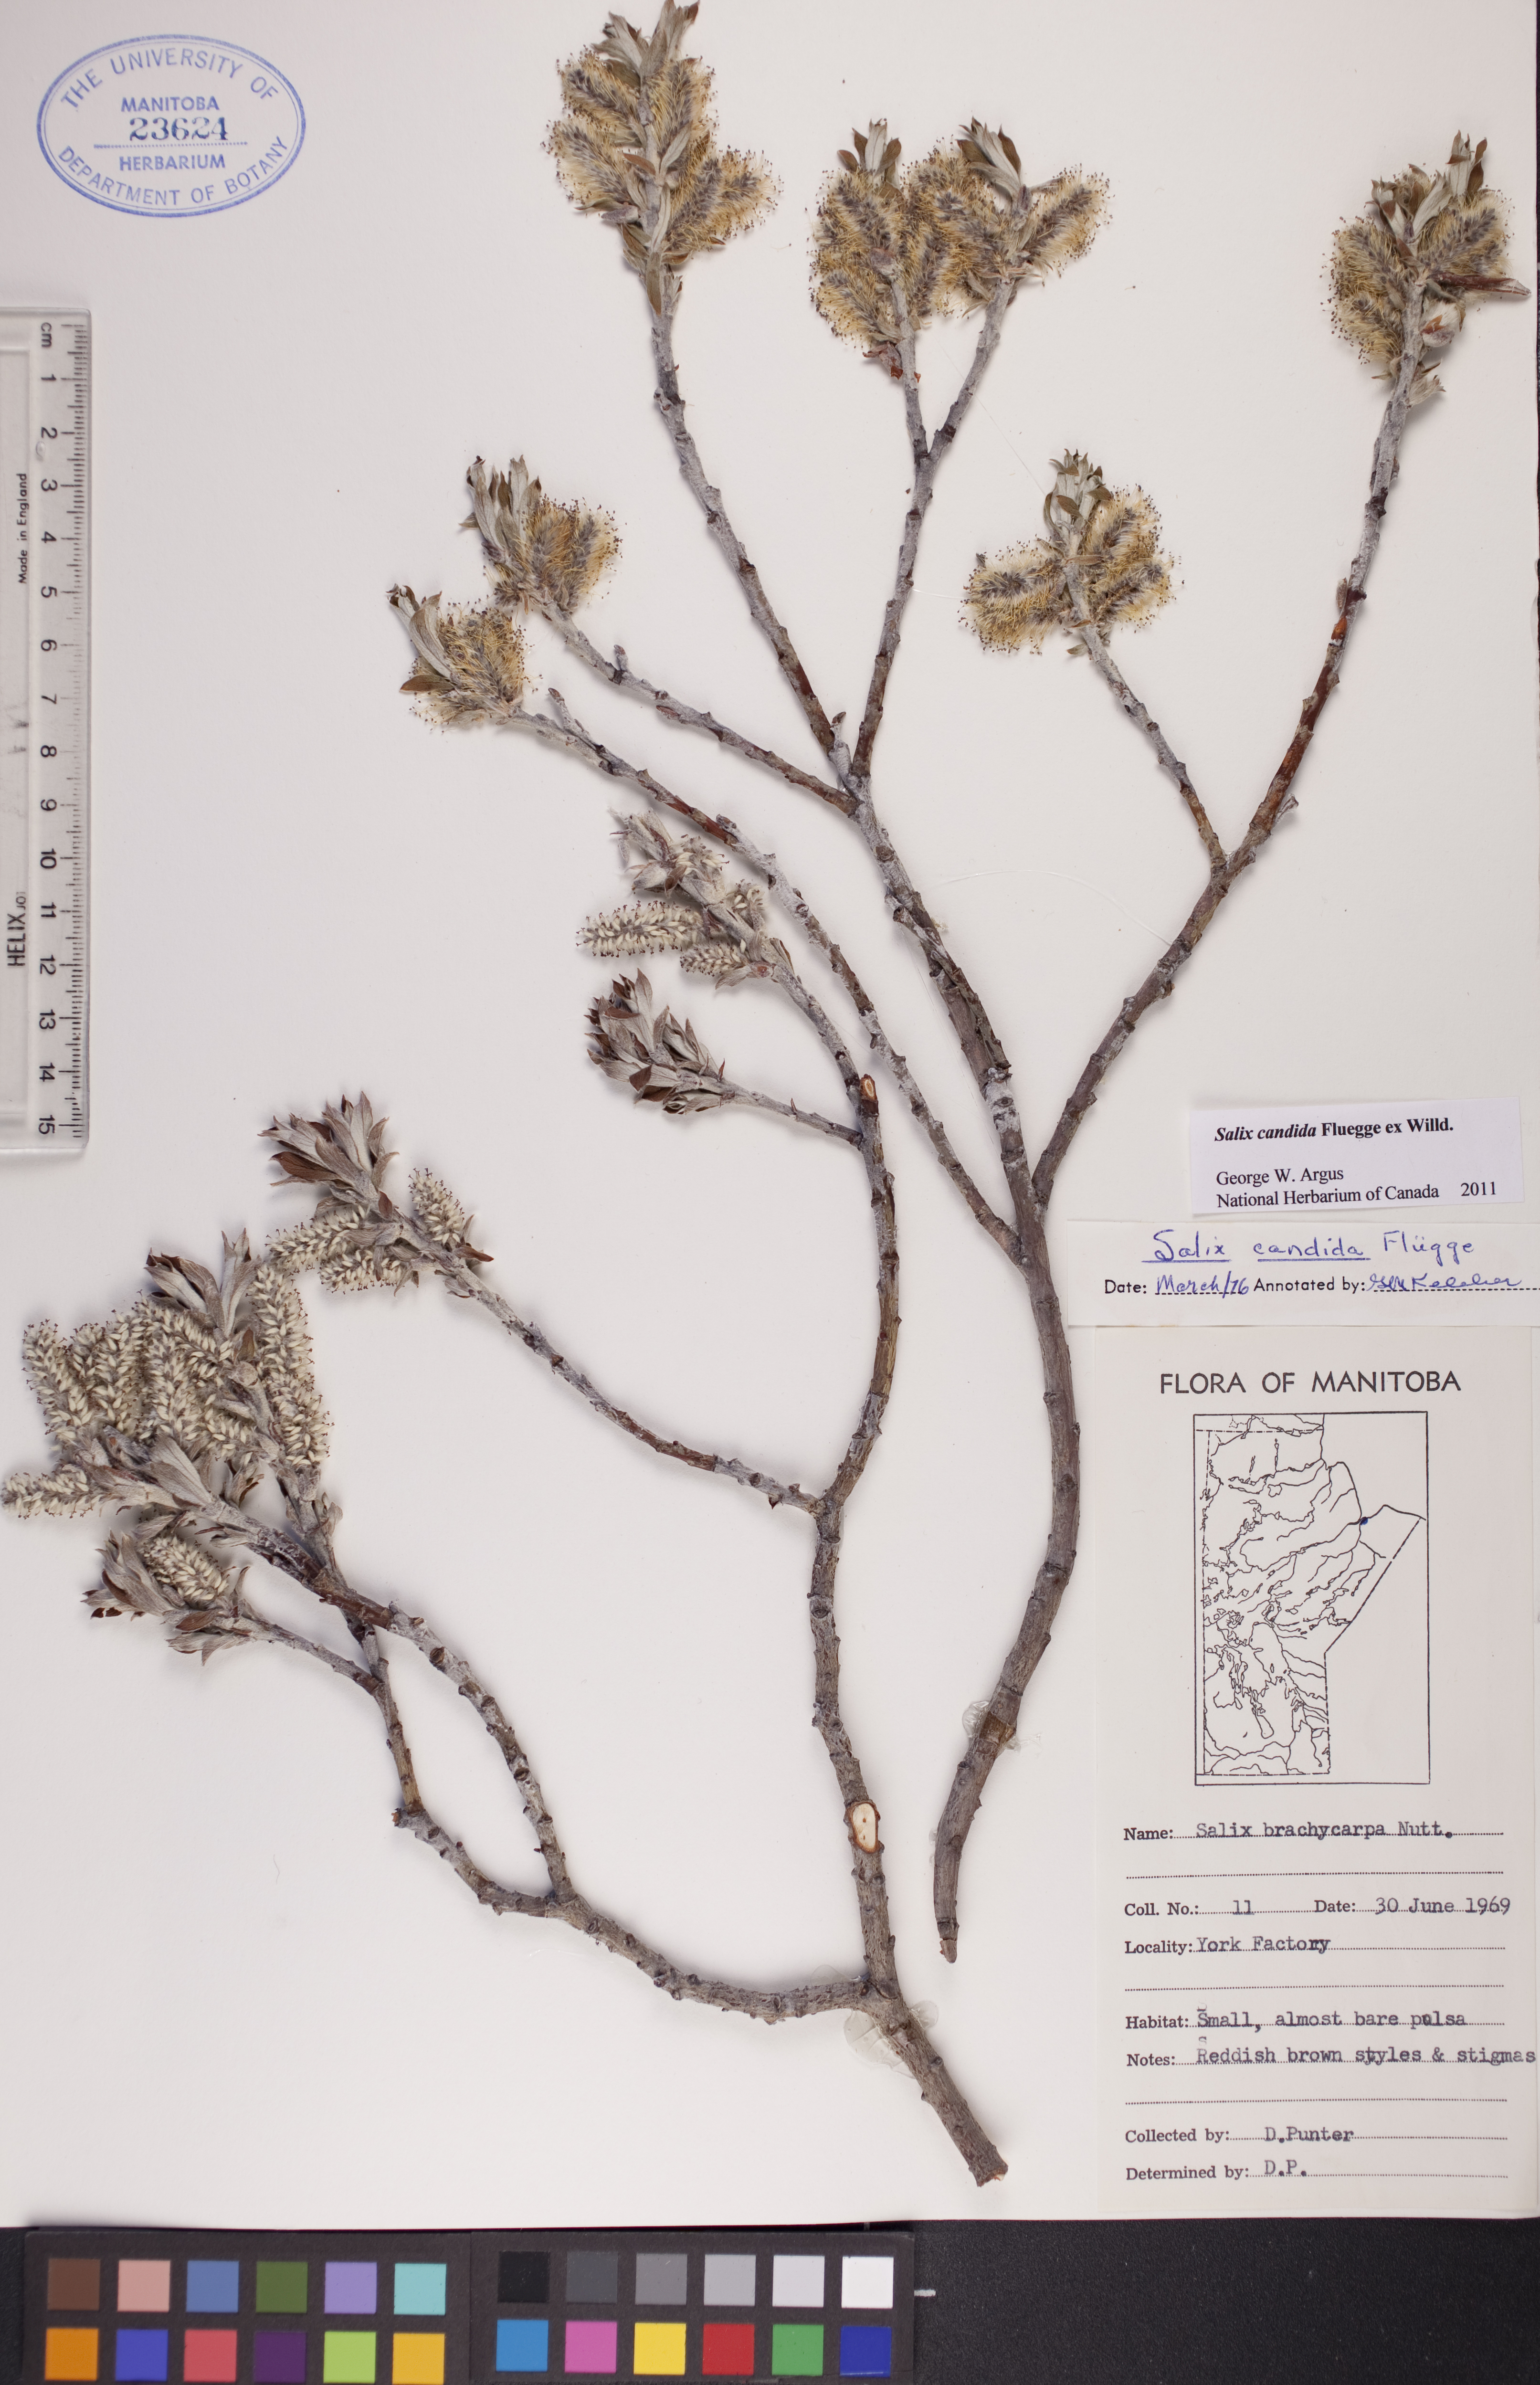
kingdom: Plantae
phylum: Tracheophyta
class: Magnoliopsida
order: Malpighiales
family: Salicaceae
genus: Salix
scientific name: Salix candida
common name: Hoary willow
